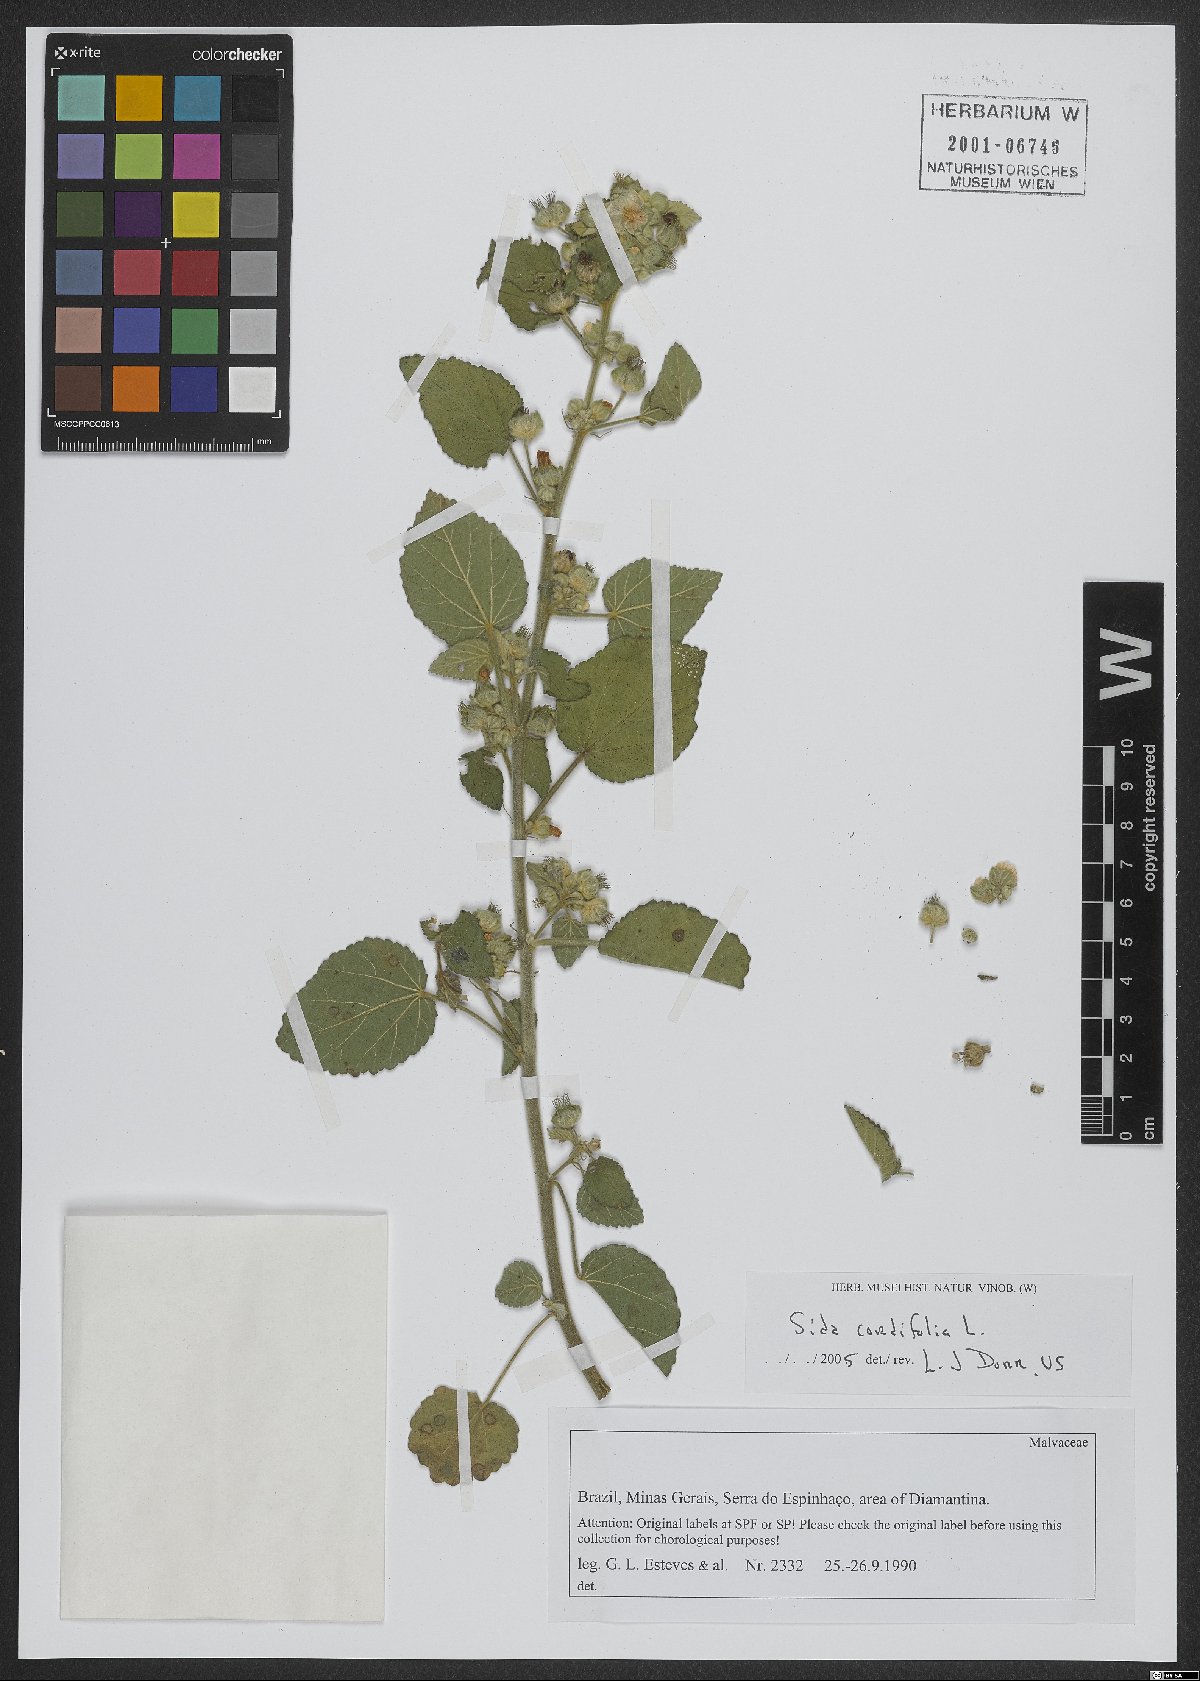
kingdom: Plantae
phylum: Tracheophyta
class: Magnoliopsida
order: Malvales
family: Malvaceae
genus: Sida
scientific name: Sida cordifolia
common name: Ilima
